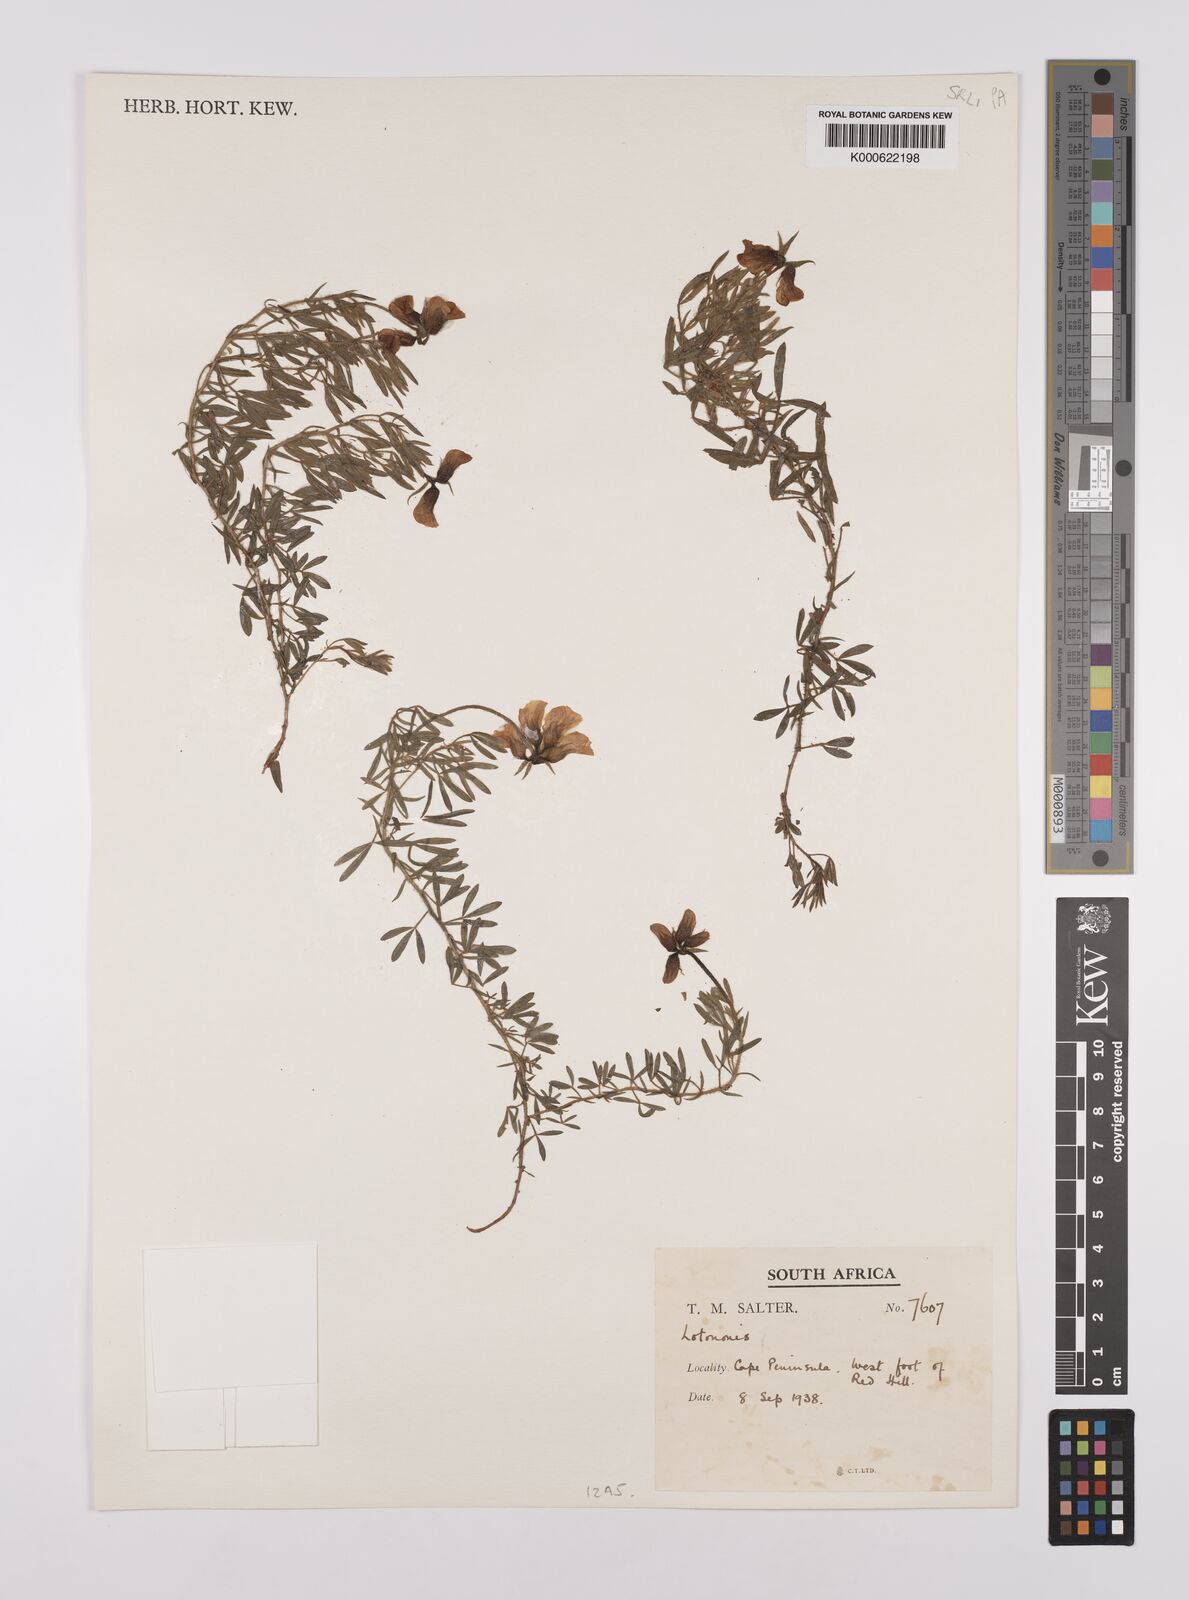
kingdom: Plantae
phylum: Tracheophyta
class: Magnoliopsida
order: Fabales
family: Fabaceae
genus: Lotononis
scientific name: Lotononis involucrata
